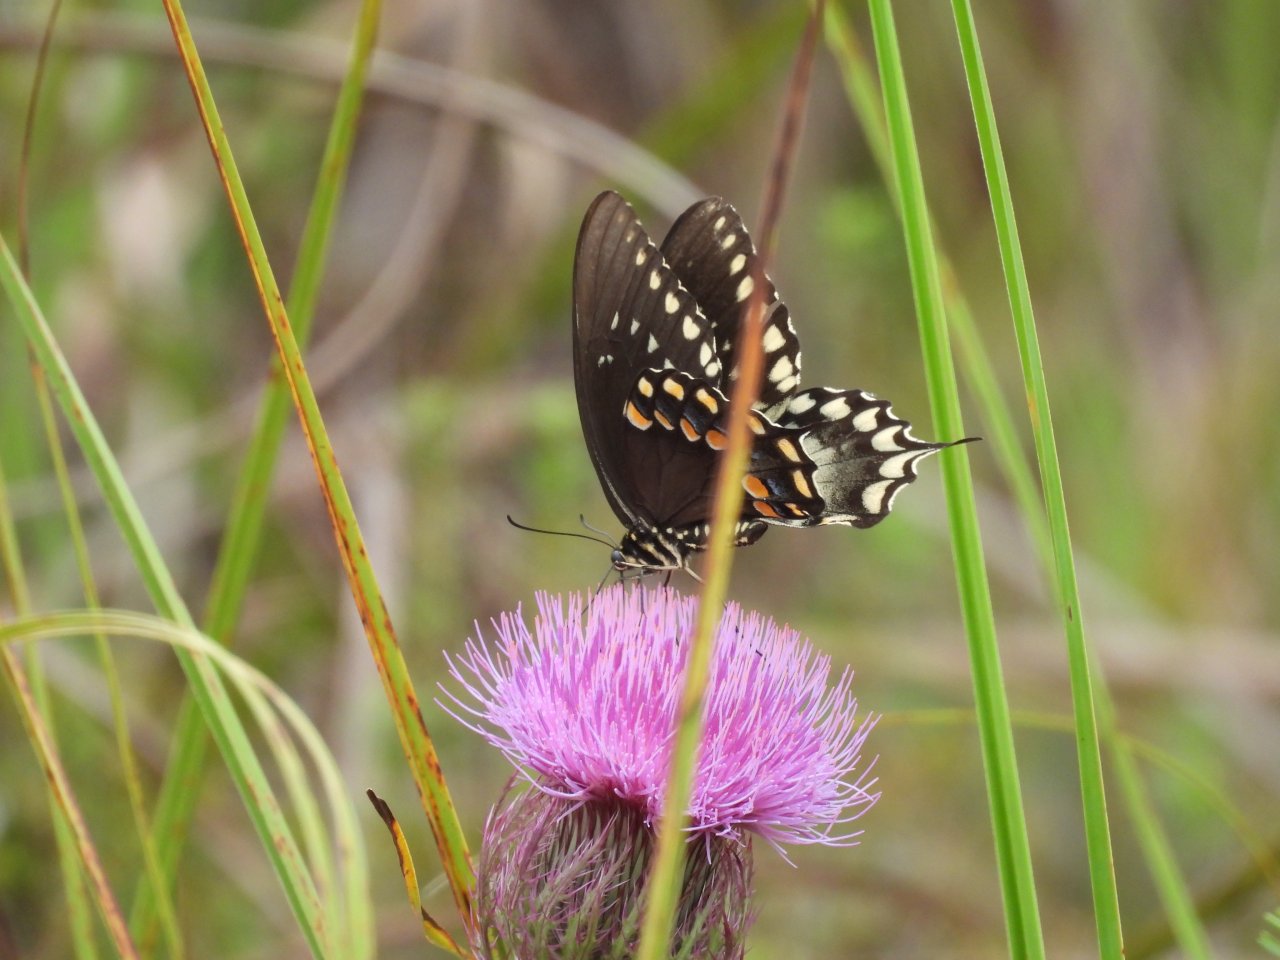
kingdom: Animalia
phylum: Arthropoda
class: Insecta
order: Lepidoptera
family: Papilionidae
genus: Pterourus
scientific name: Pterourus troilus
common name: Spicebush Swallowtail
